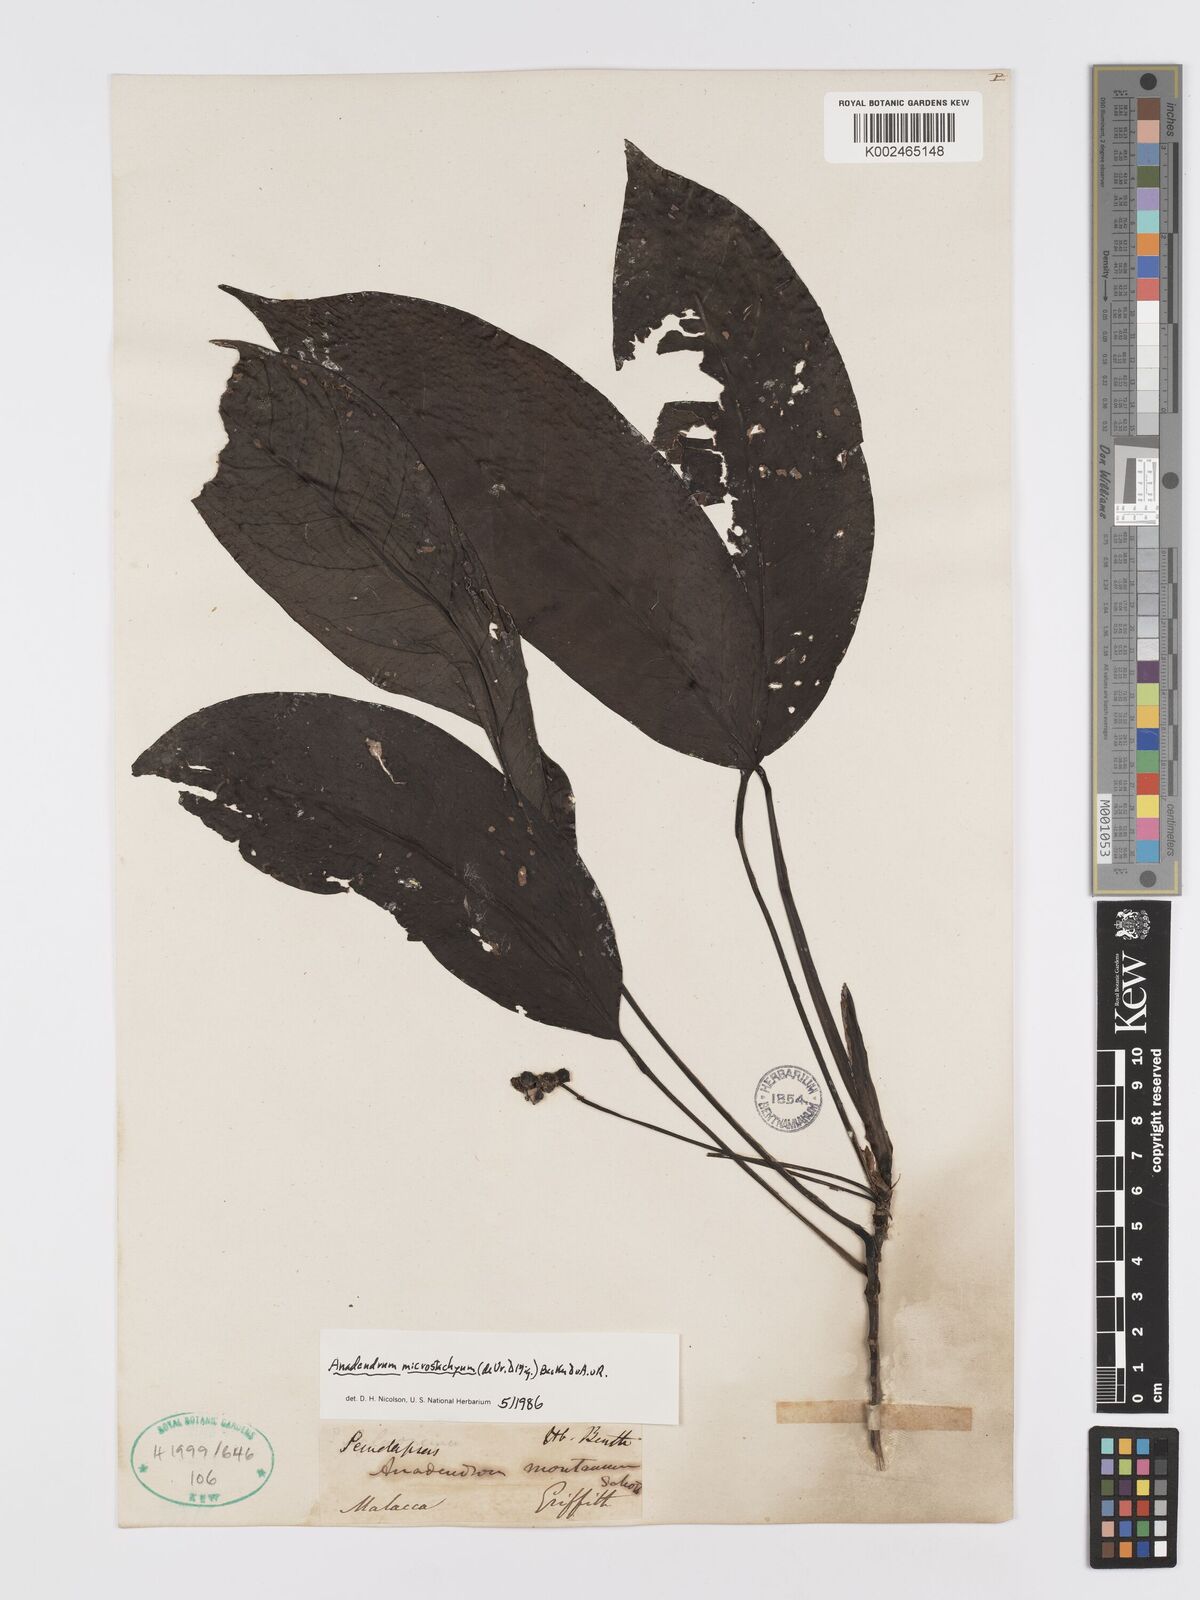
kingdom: Plantae
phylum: Tracheophyta
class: Liliopsida
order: Alismatales
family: Araceae
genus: Anadendrum
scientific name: Anadendrum microstachyum
